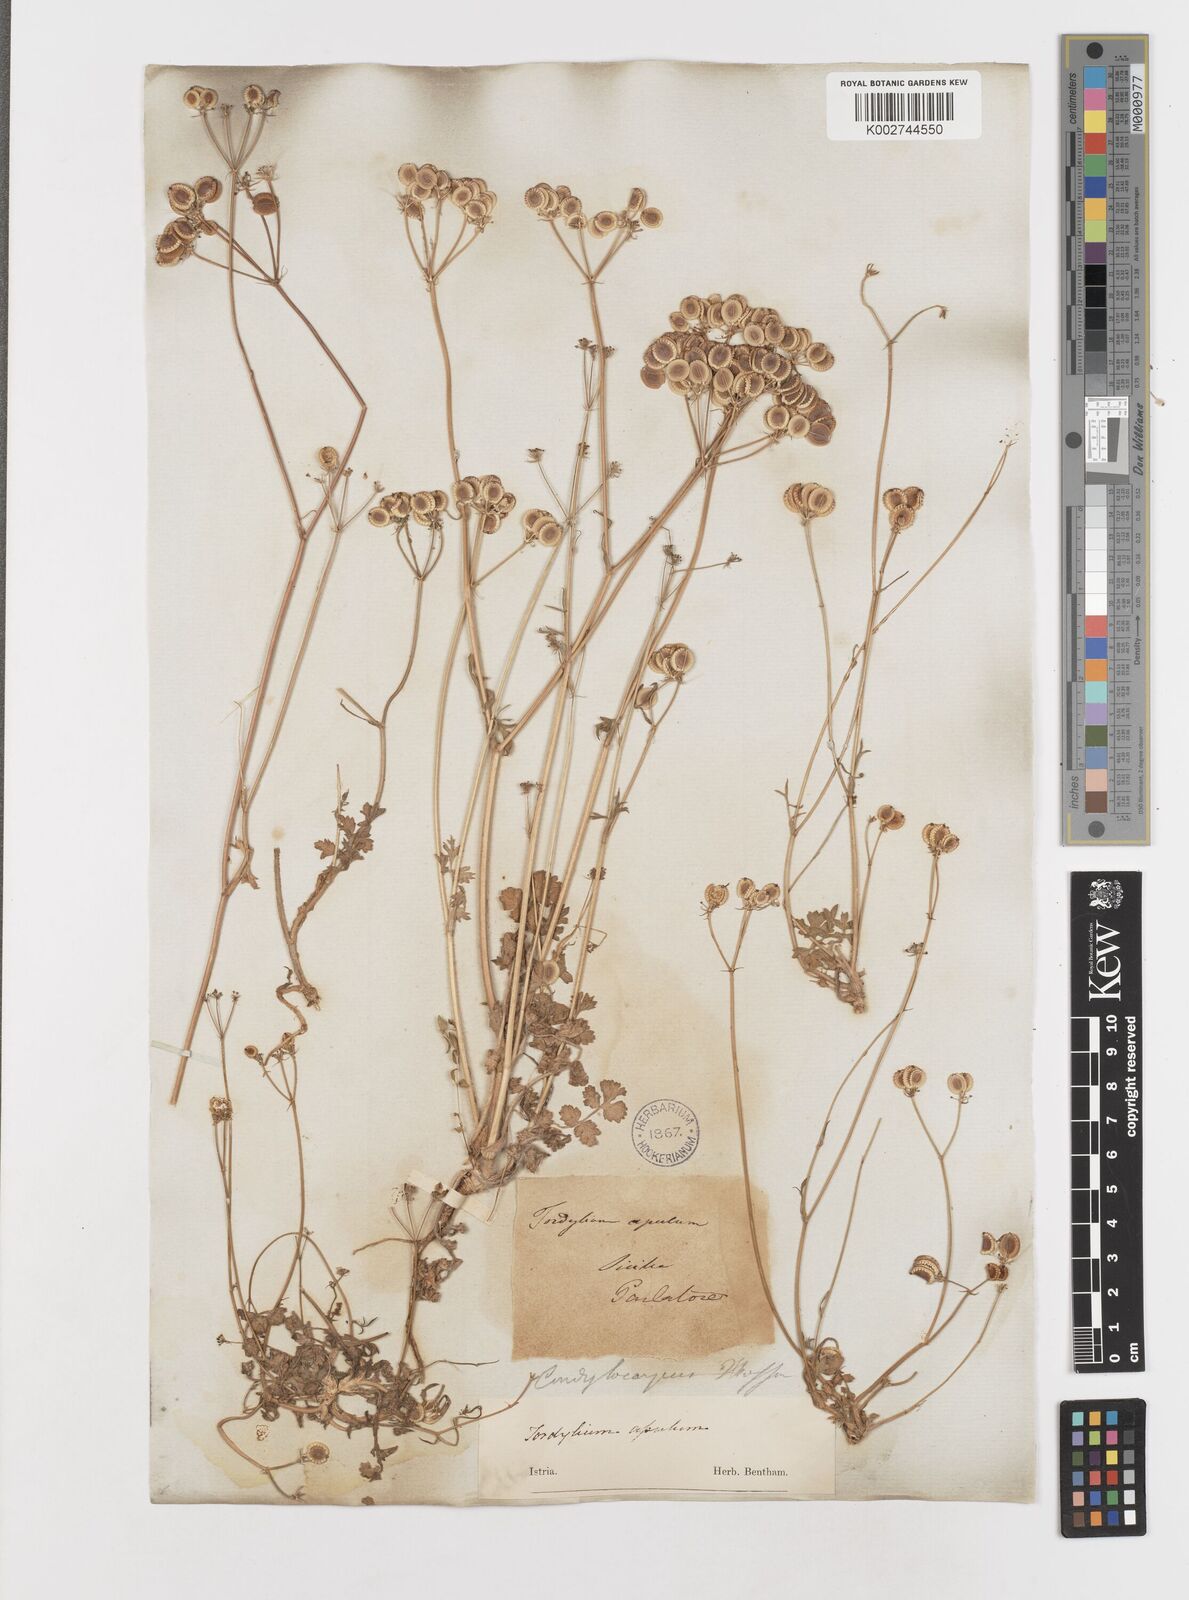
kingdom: Plantae
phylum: Tracheophyta
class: Magnoliopsida
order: Apiales
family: Apiaceae
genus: Tordylium
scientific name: Tordylium apulum
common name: Mediterranean hartwort
